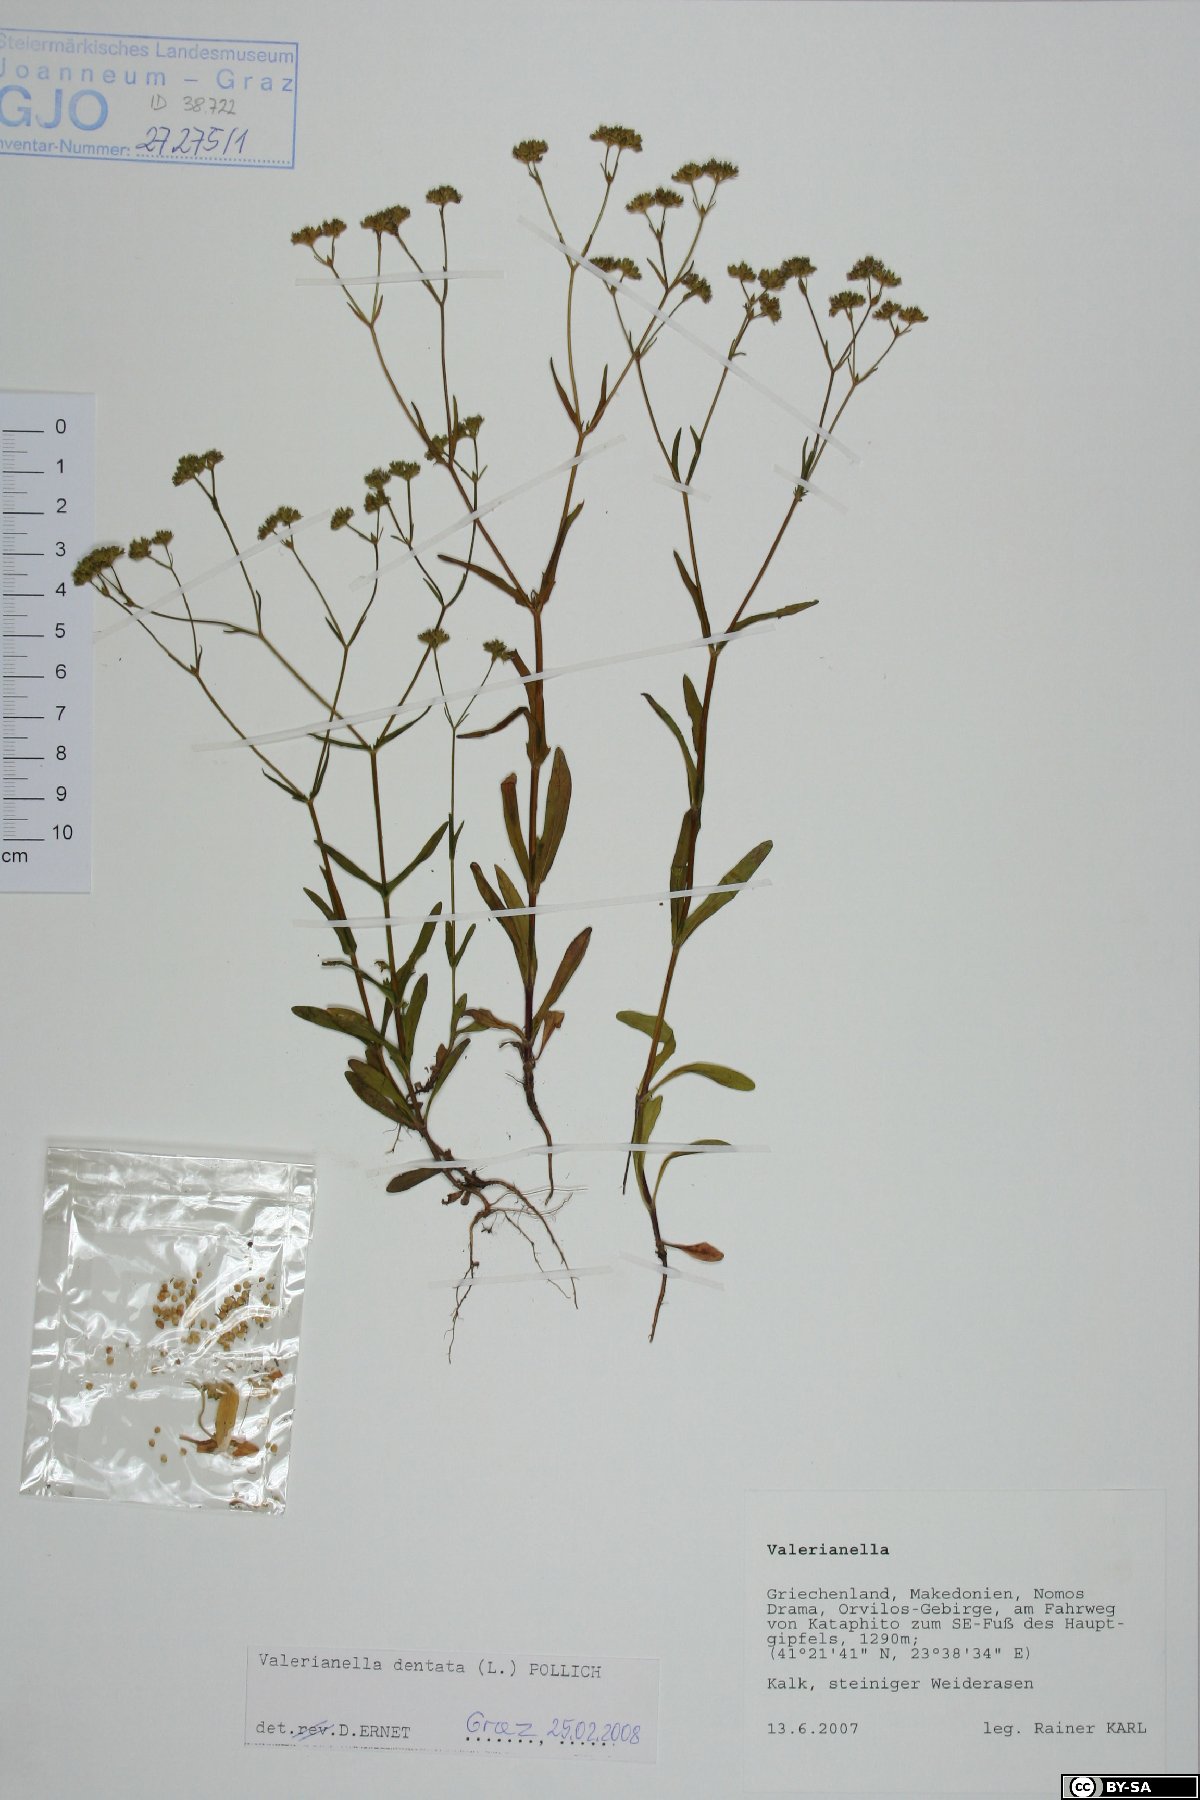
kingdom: Plantae
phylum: Tracheophyta
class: Magnoliopsida
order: Dipsacales
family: Caprifoliaceae
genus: Valerianella
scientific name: Valerianella dentata
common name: Narrow-fruited cornsalad
